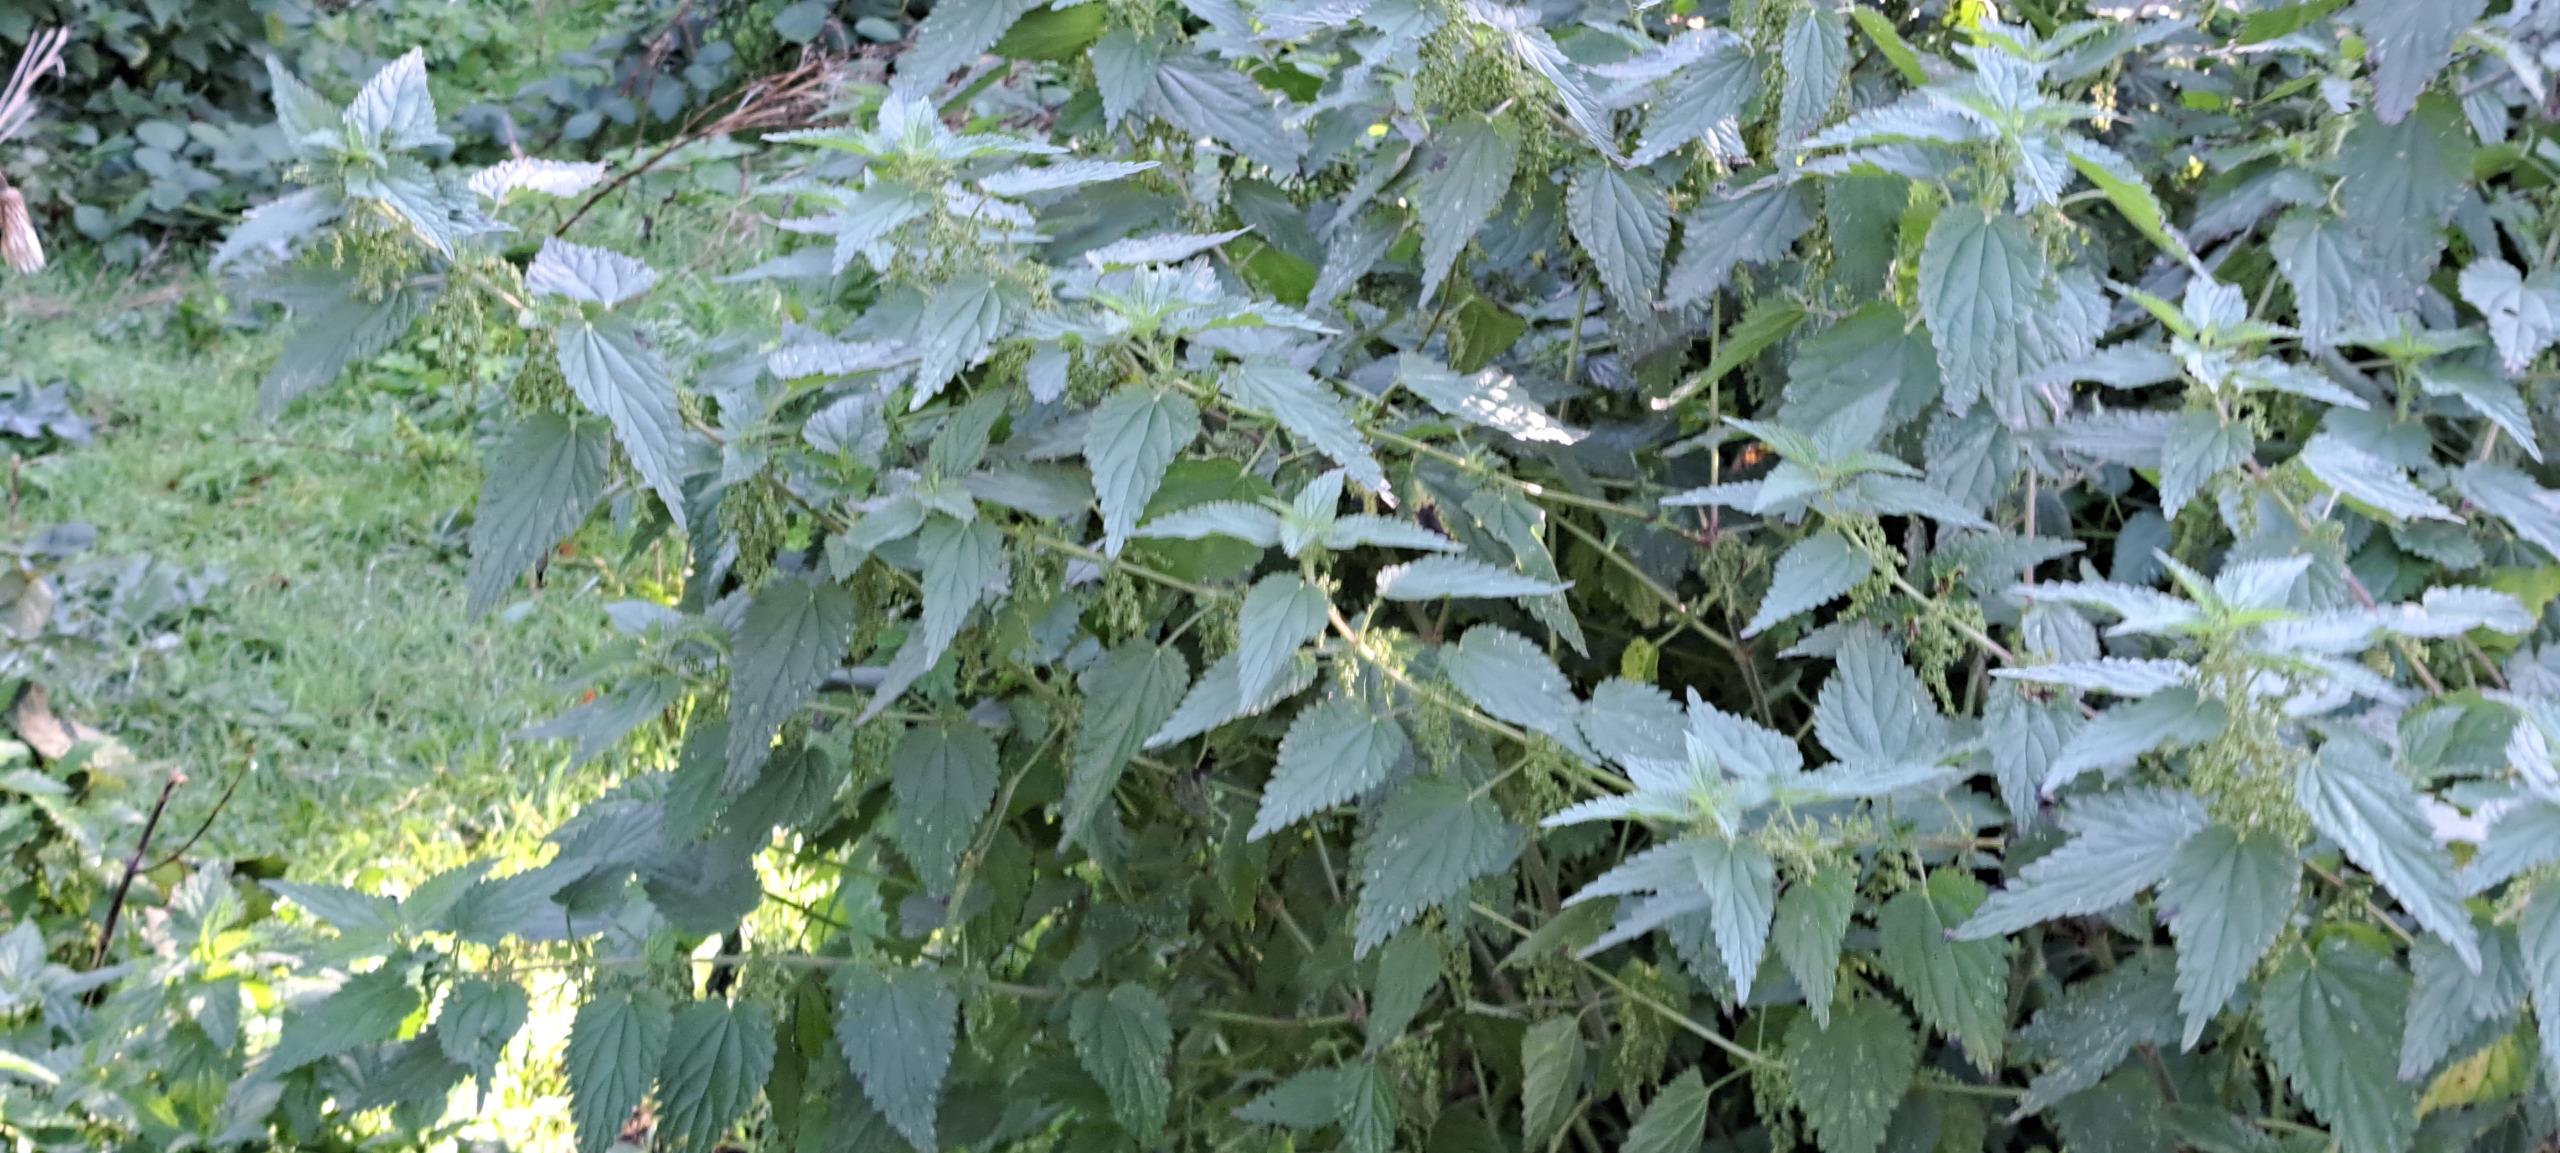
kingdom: Plantae
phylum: Tracheophyta
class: Magnoliopsida
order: Rosales
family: Urticaceae
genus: Urtica
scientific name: Urtica dioica
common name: Stor nælde
